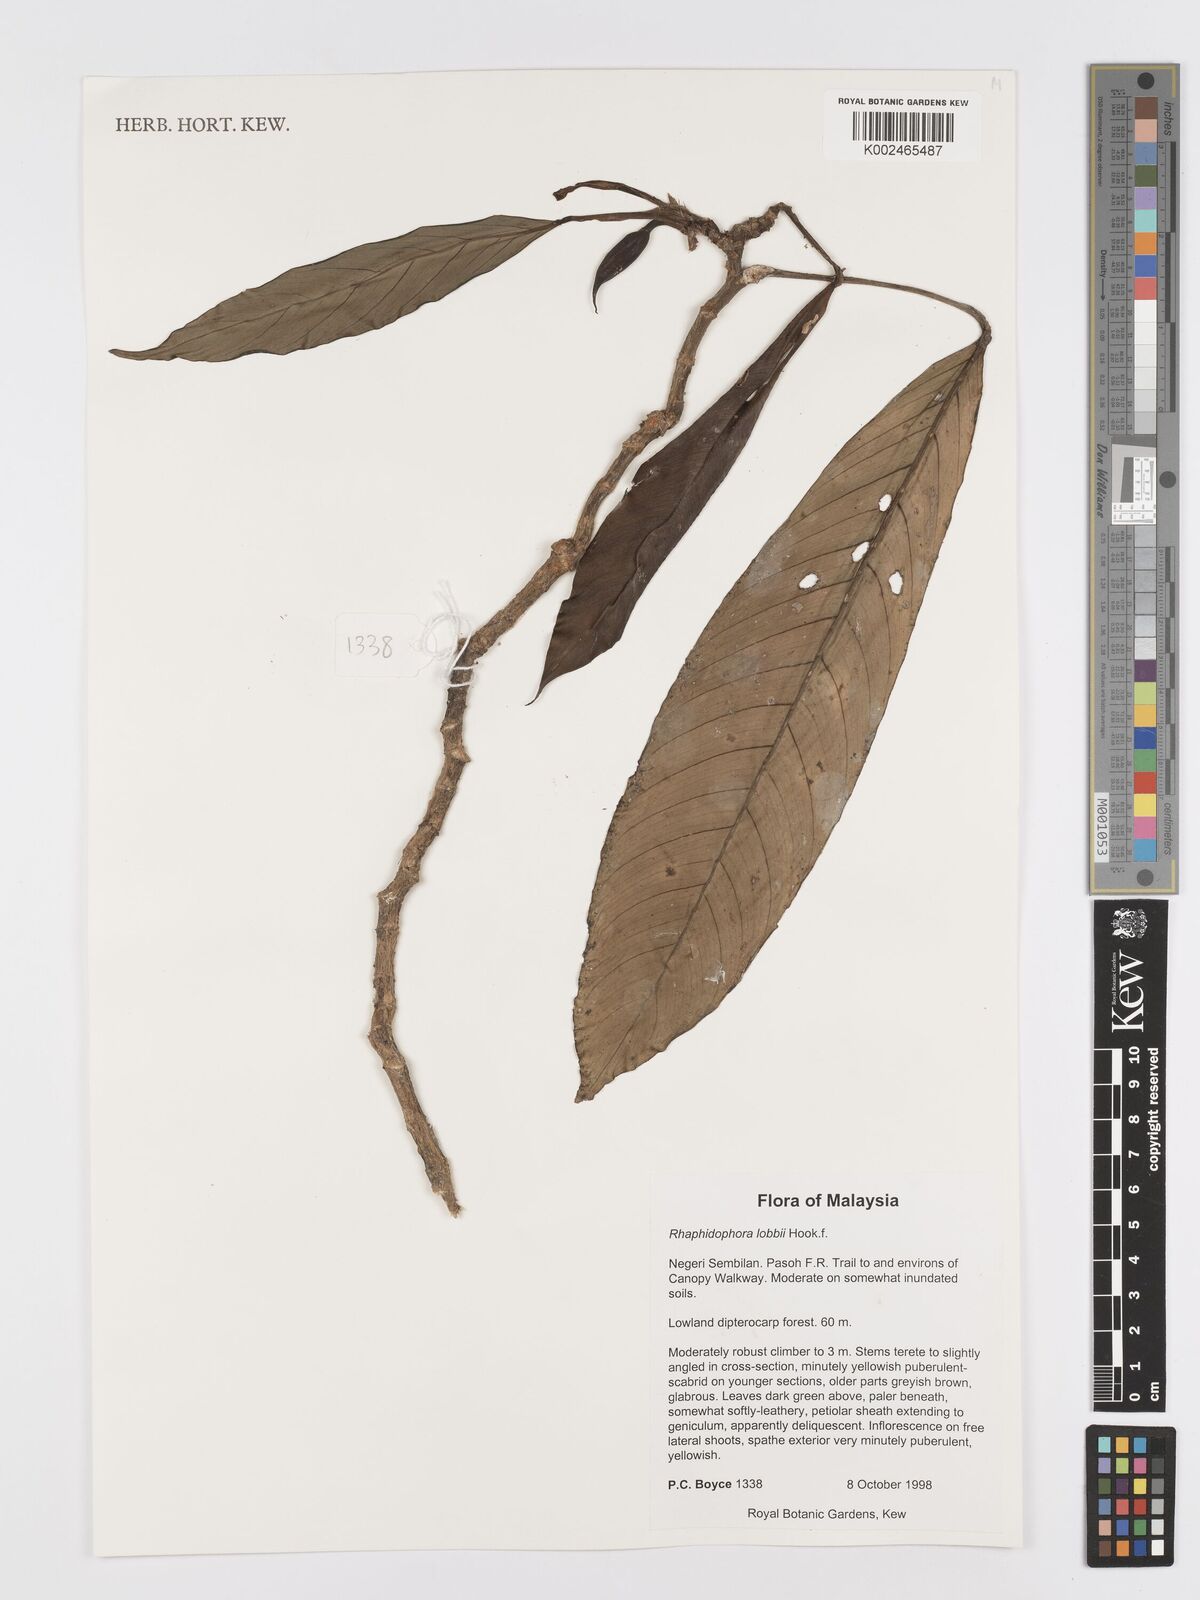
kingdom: Plantae
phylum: Tracheophyta
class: Liliopsida
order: Alismatales
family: Araceae
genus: Rhaphidophora
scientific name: Rhaphidophora lobbii
